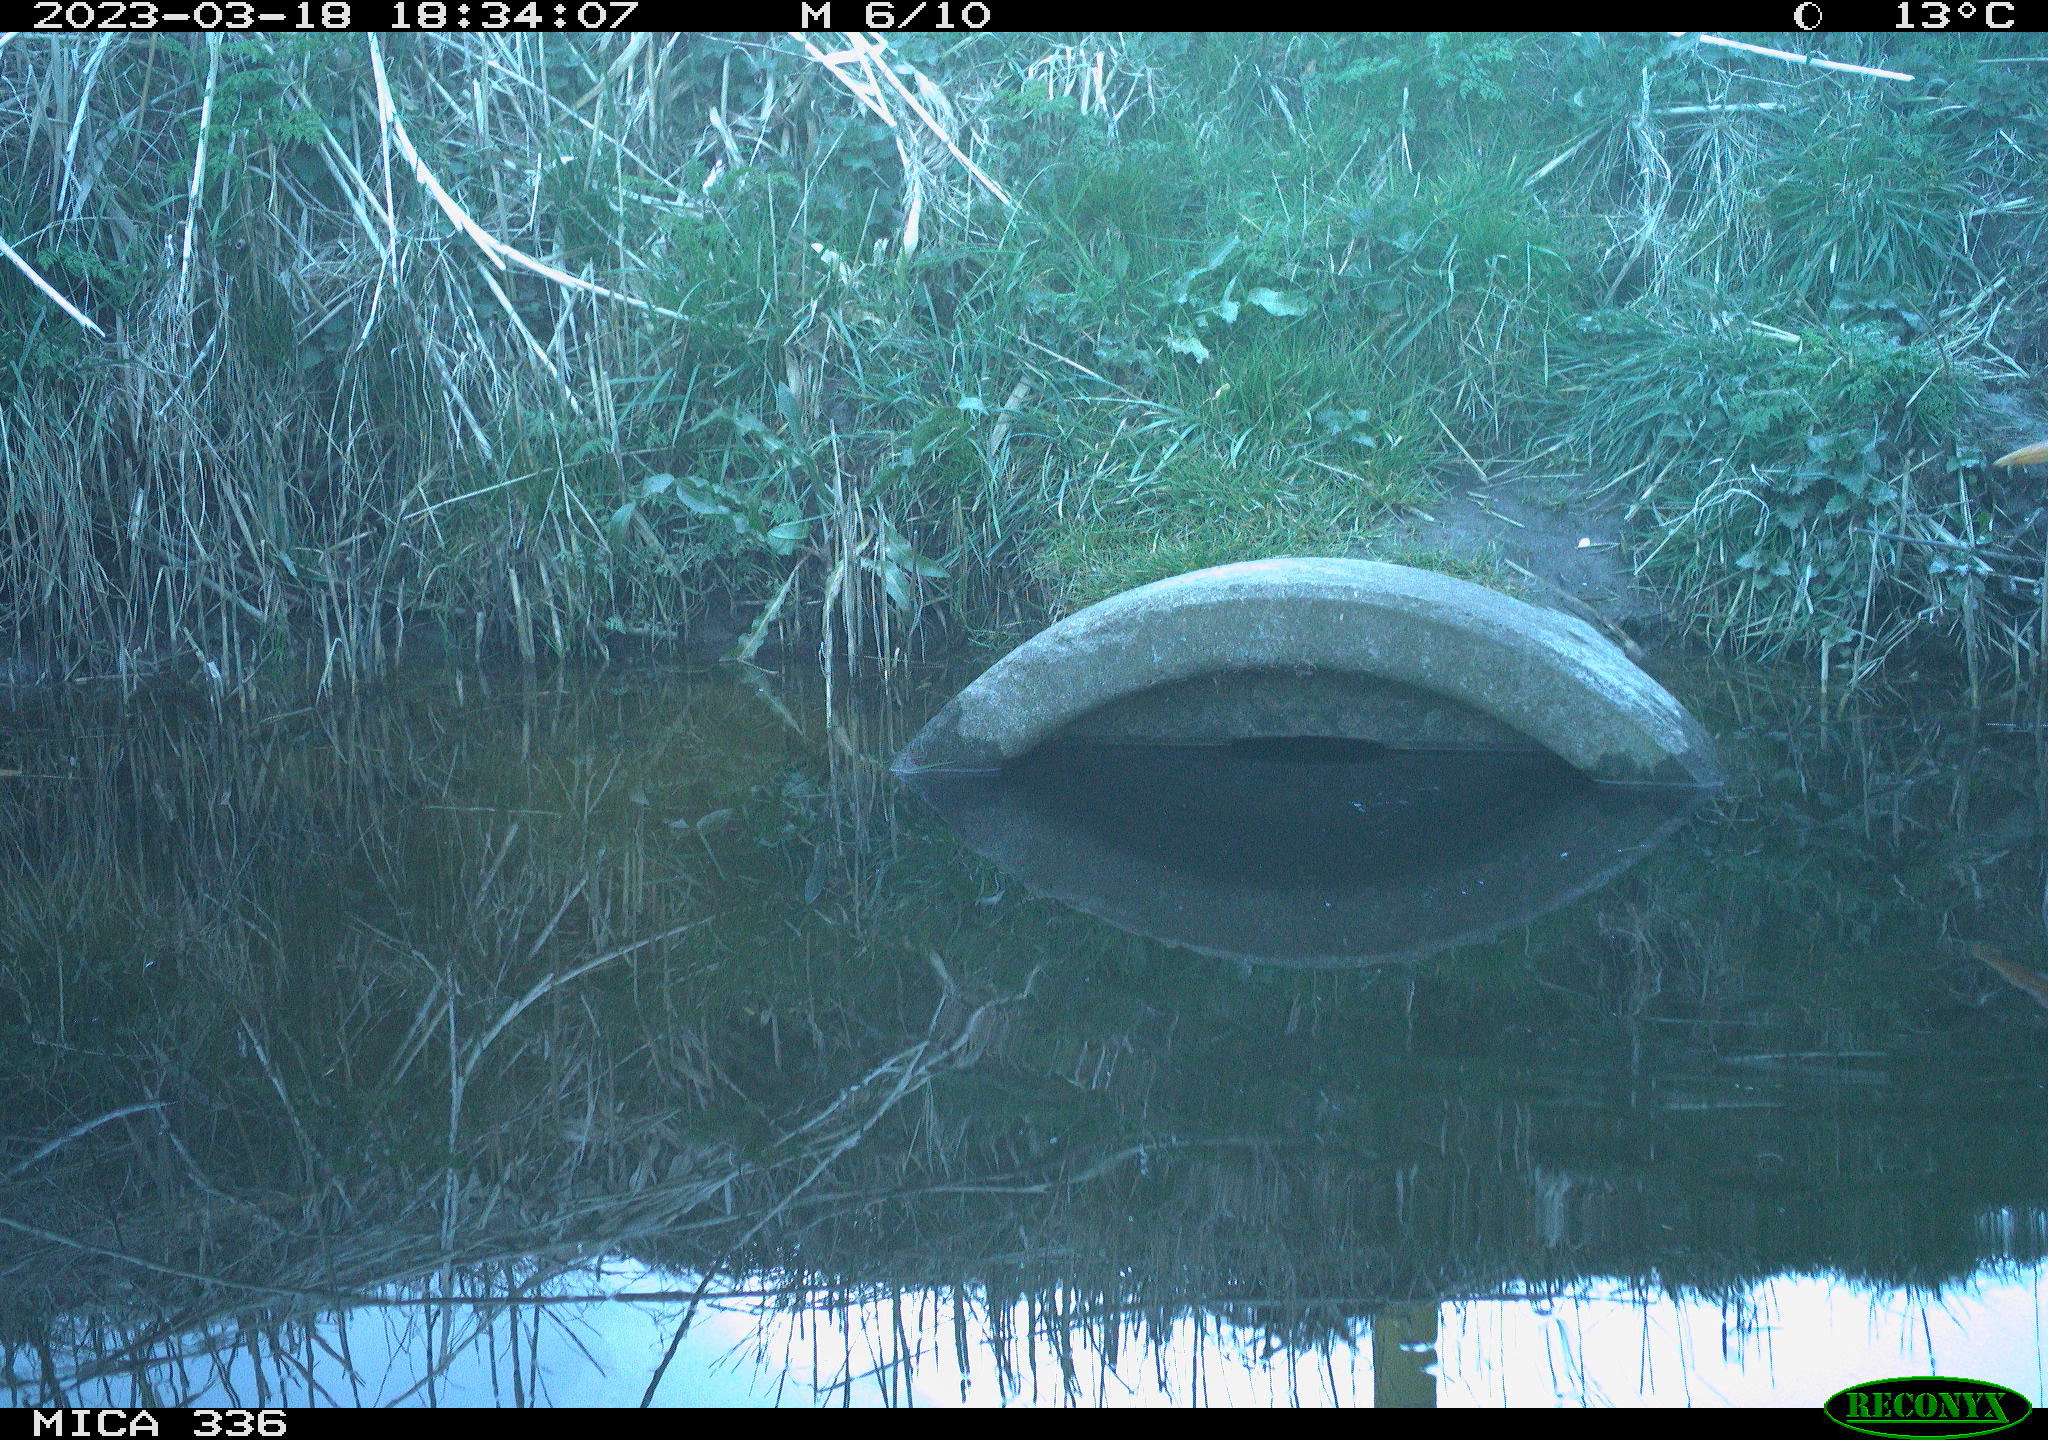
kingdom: Animalia
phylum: Chordata
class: Aves
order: Pelecaniformes
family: Ardeidae
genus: Ardea
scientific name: Ardea cinerea
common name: Grey heron
